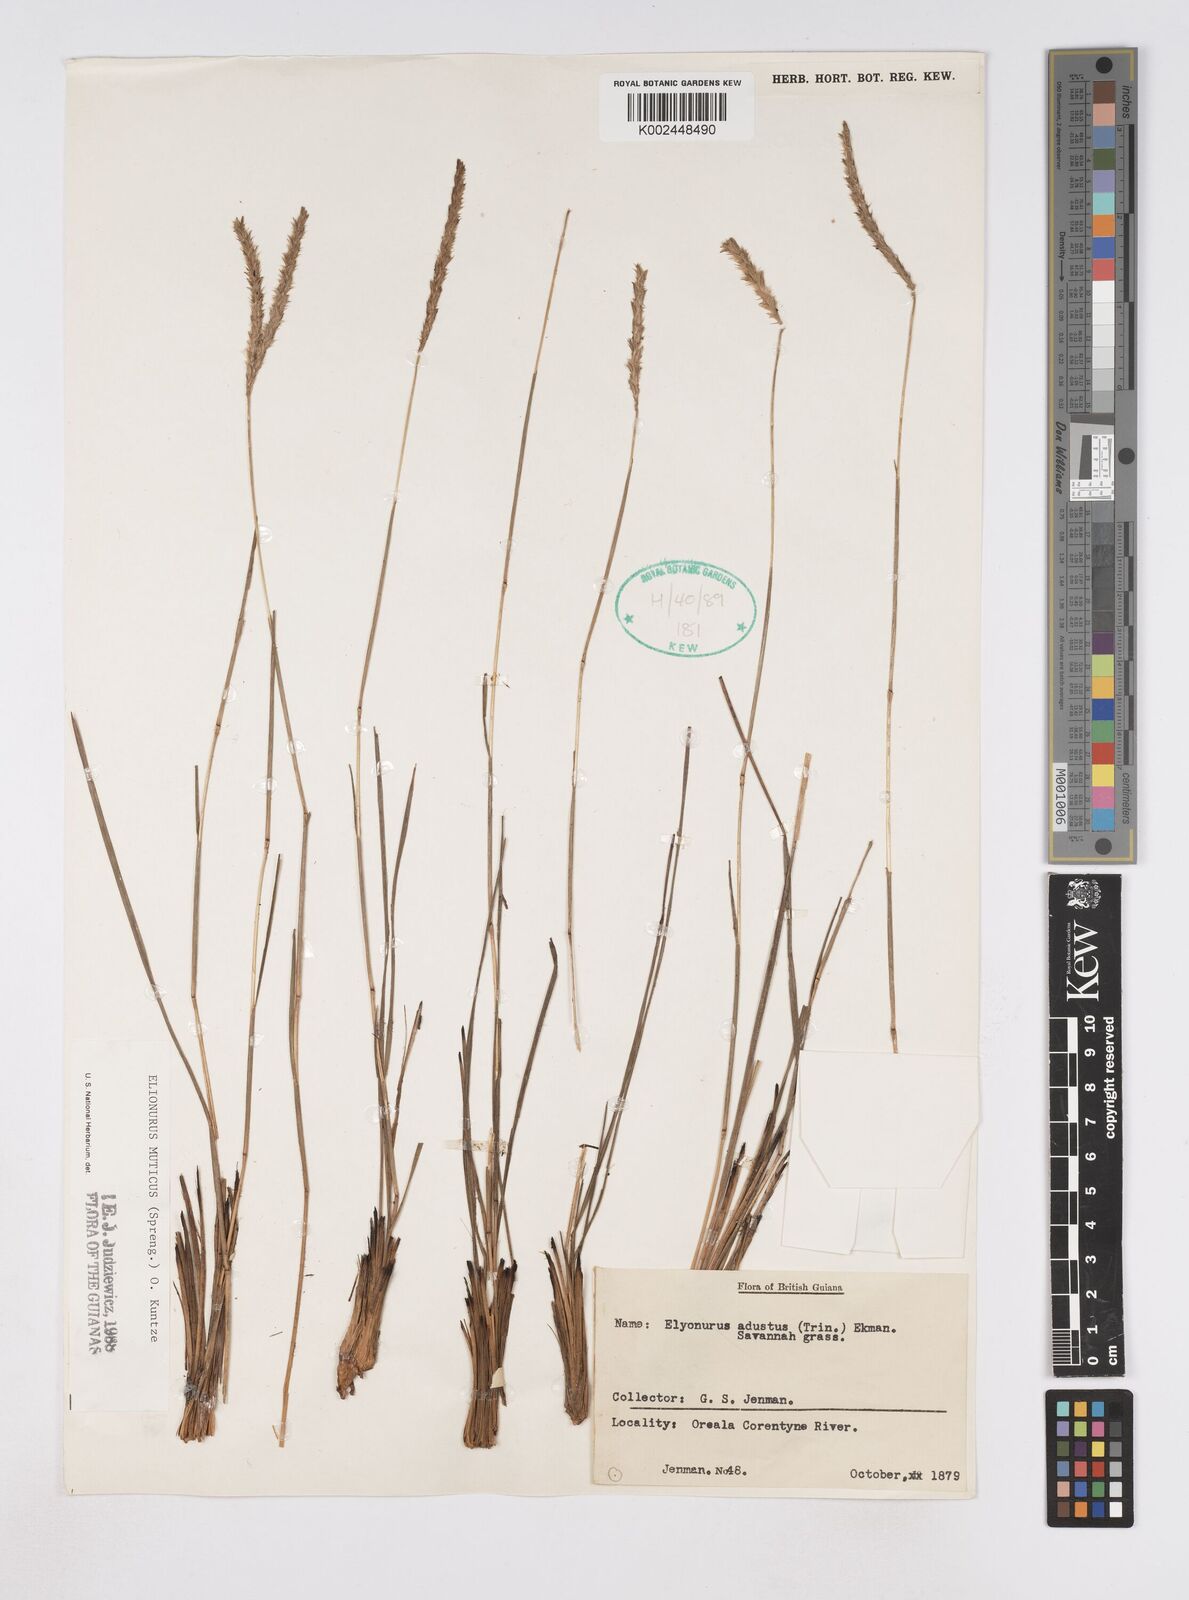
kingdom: Plantae
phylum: Tracheophyta
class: Liliopsida
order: Poales
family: Poaceae
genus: Elionurus
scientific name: Elionurus muticus
